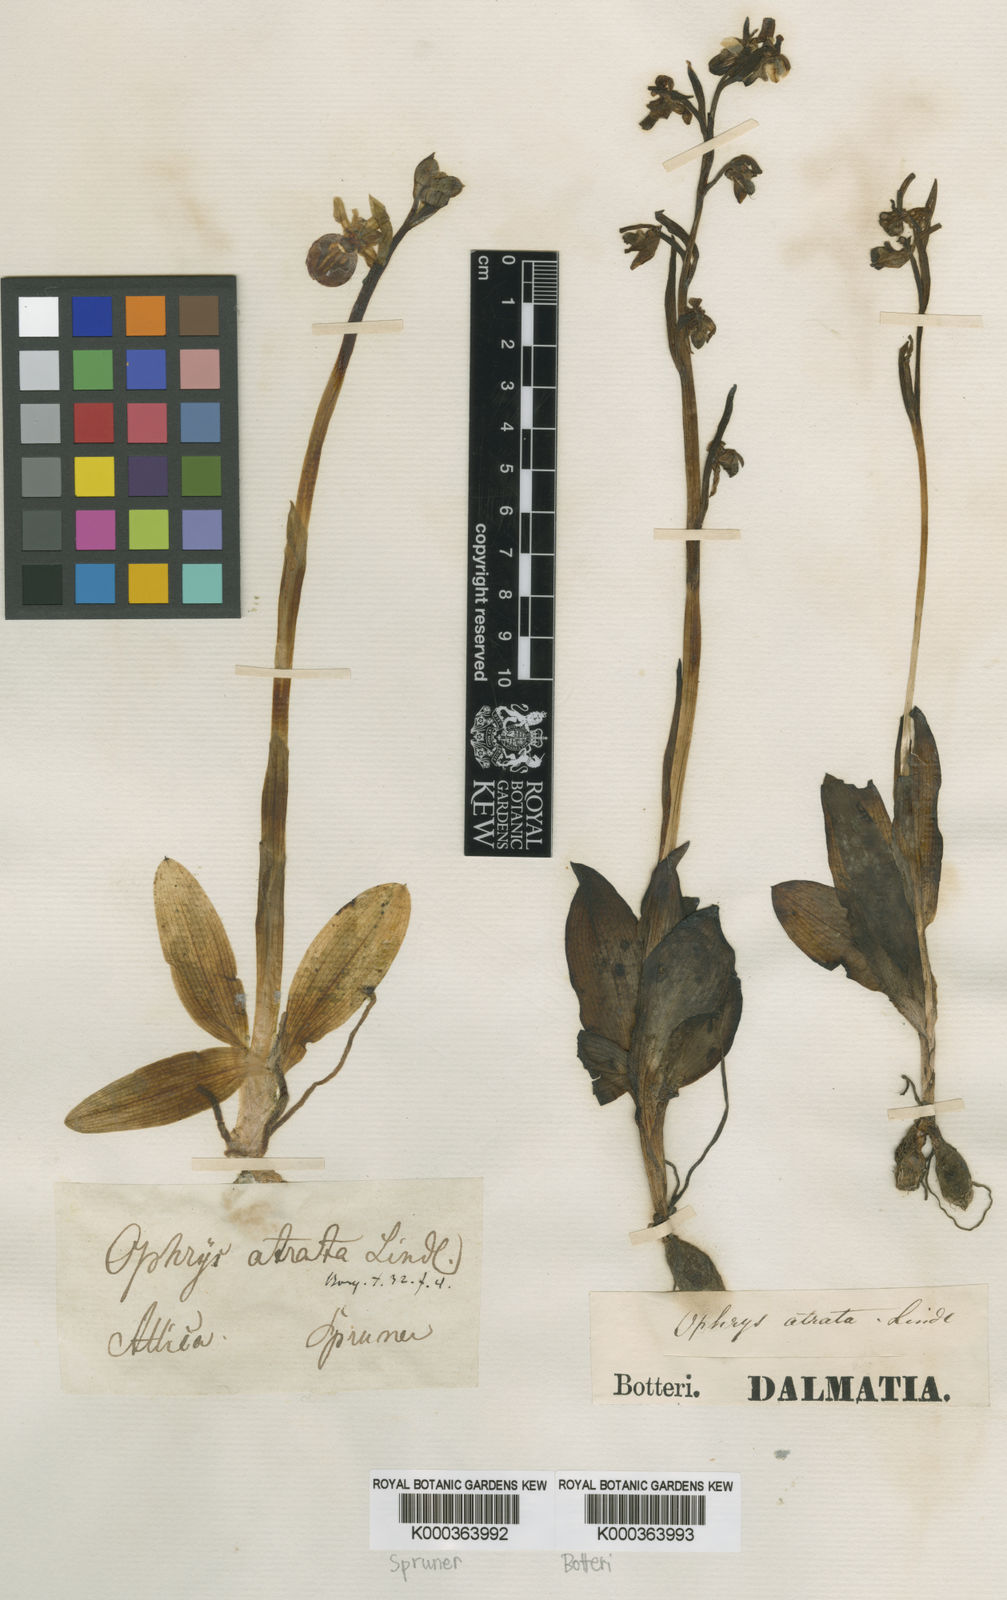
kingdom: Plantae
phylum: Tracheophyta
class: Liliopsida
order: Asparagales
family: Orchidaceae
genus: Ophrys
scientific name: Ophrys sphegodes
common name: Early spider-orchid
